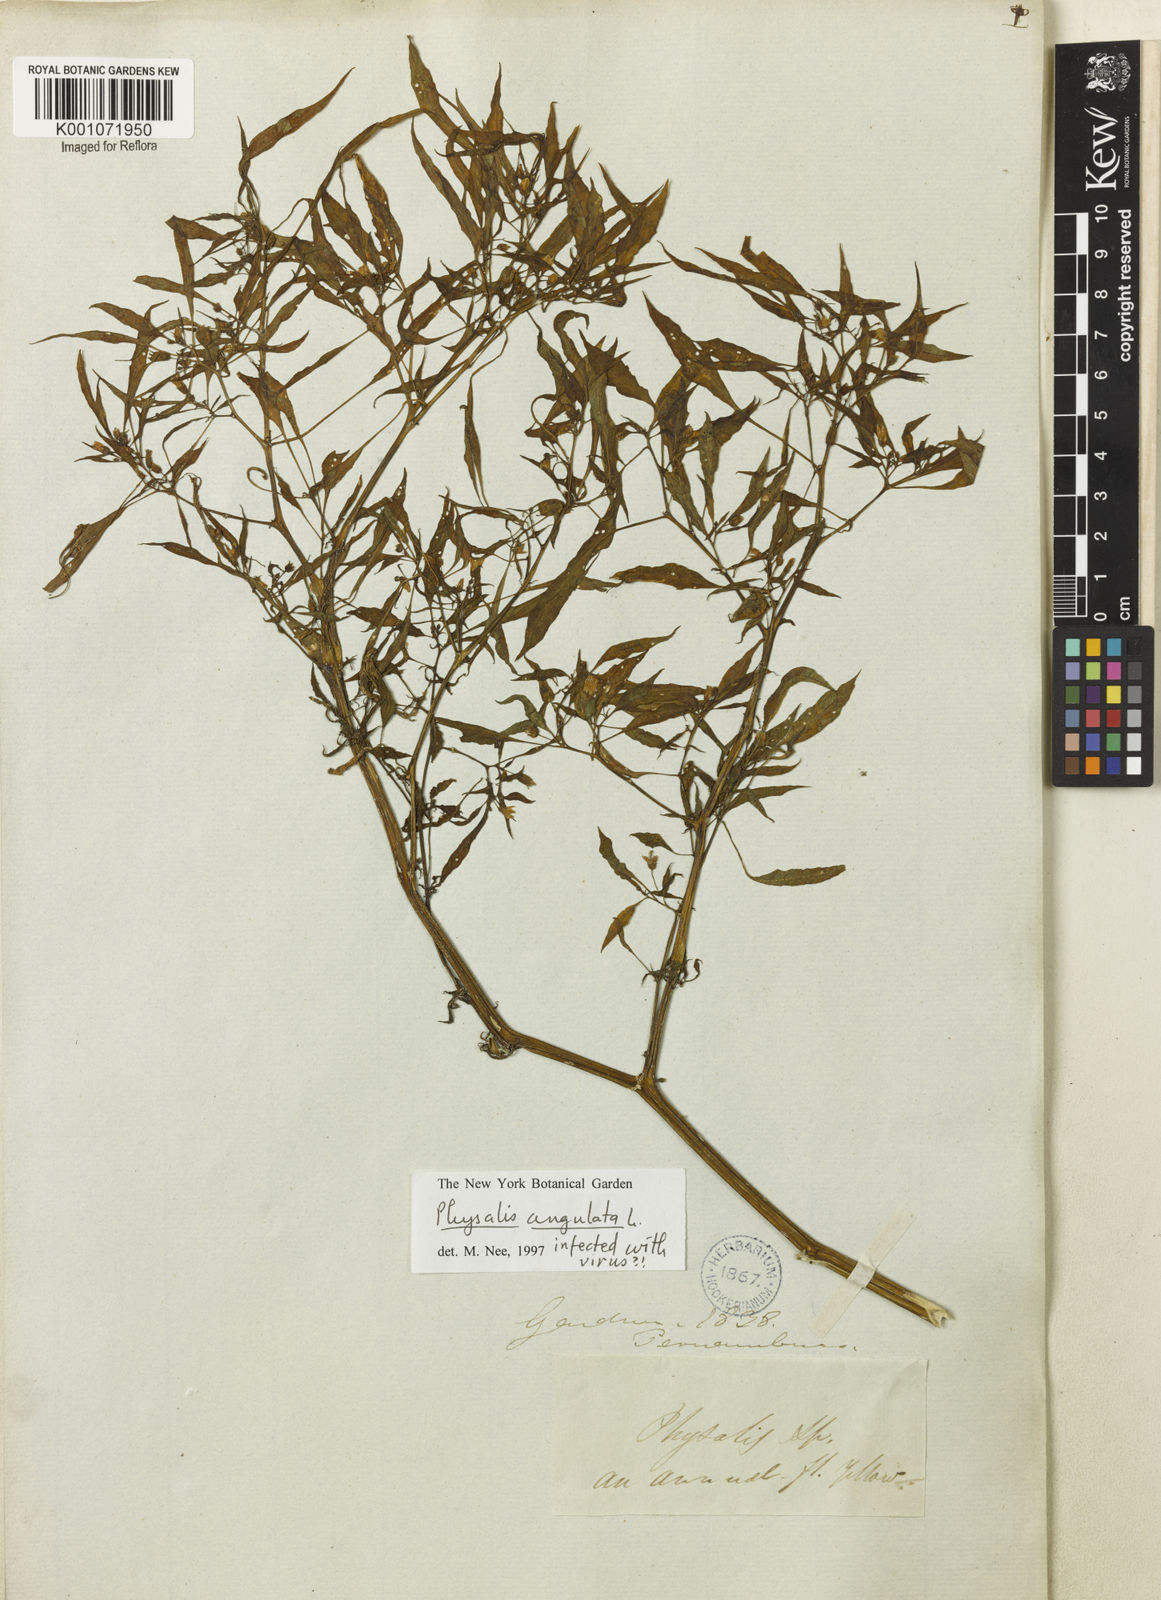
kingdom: Plantae
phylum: Tracheophyta
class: Magnoliopsida
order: Solanales
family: Solanaceae
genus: Physalis
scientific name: Physalis angulata
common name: Angular winter-cherry
